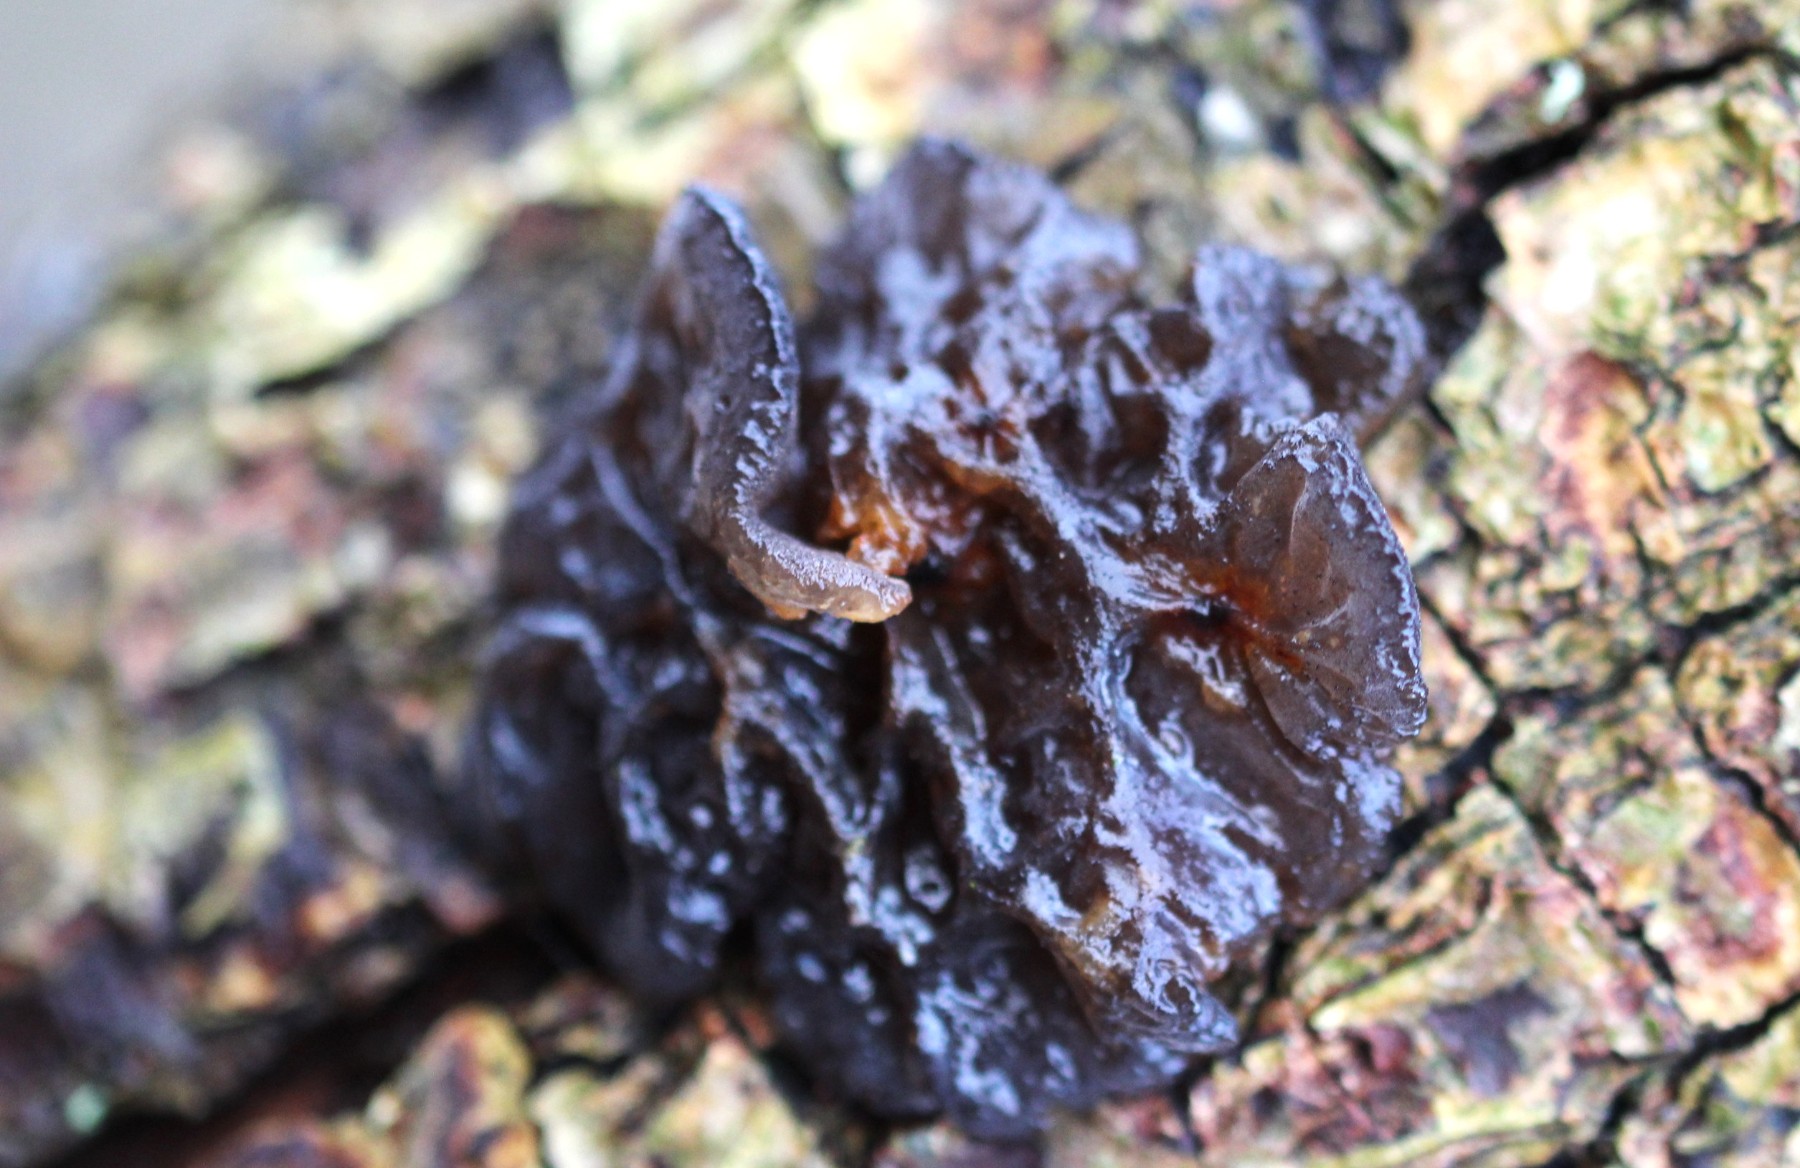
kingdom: Fungi
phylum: Basidiomycota
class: Agaricomycetes
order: Auriculariales
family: Auriculariaceae
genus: Exidia
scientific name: Exidia glandulosa
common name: ege-bævretop
